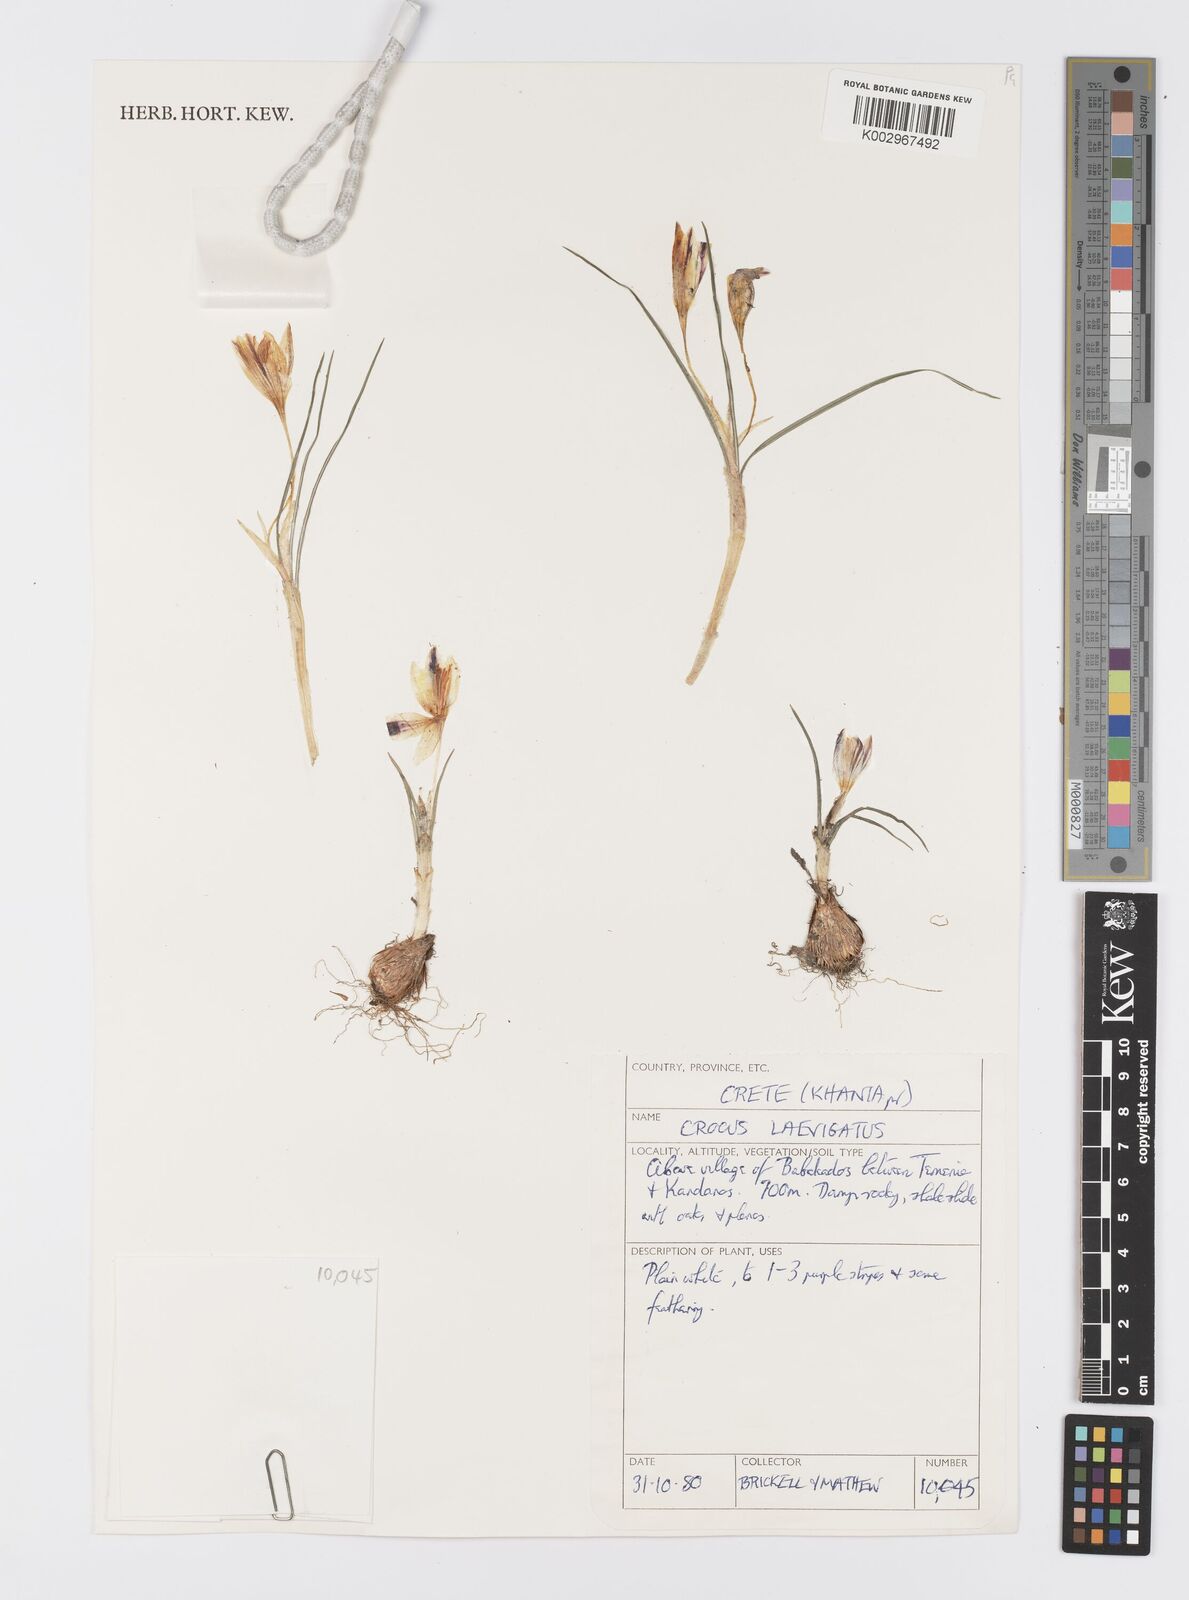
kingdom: Plantae
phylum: Tracheophyta
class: Liliopsida
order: Asparagales
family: Iridaceae
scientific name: Iridaceae
